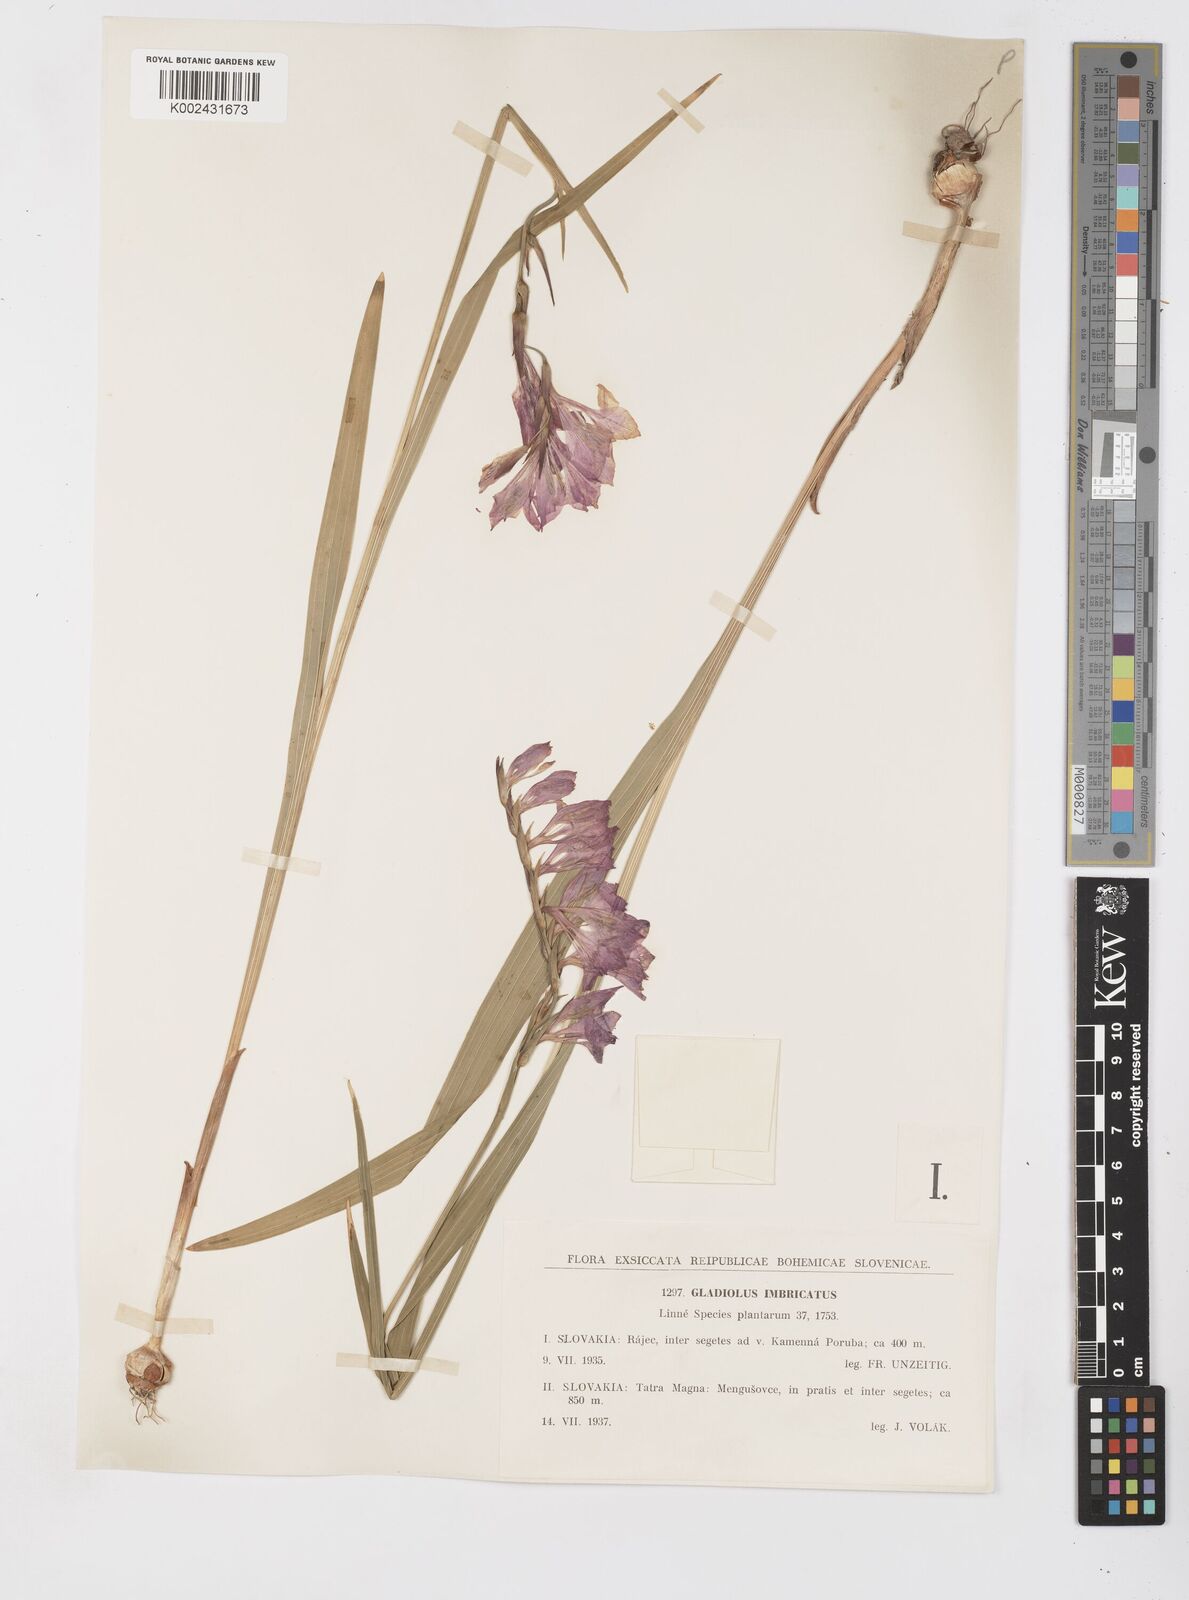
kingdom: Plantae
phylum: Tracheophyta
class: Liliopsida
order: Asparagales
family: Iridaceae
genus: Gladiolus
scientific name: Gladiolus imbricatus
